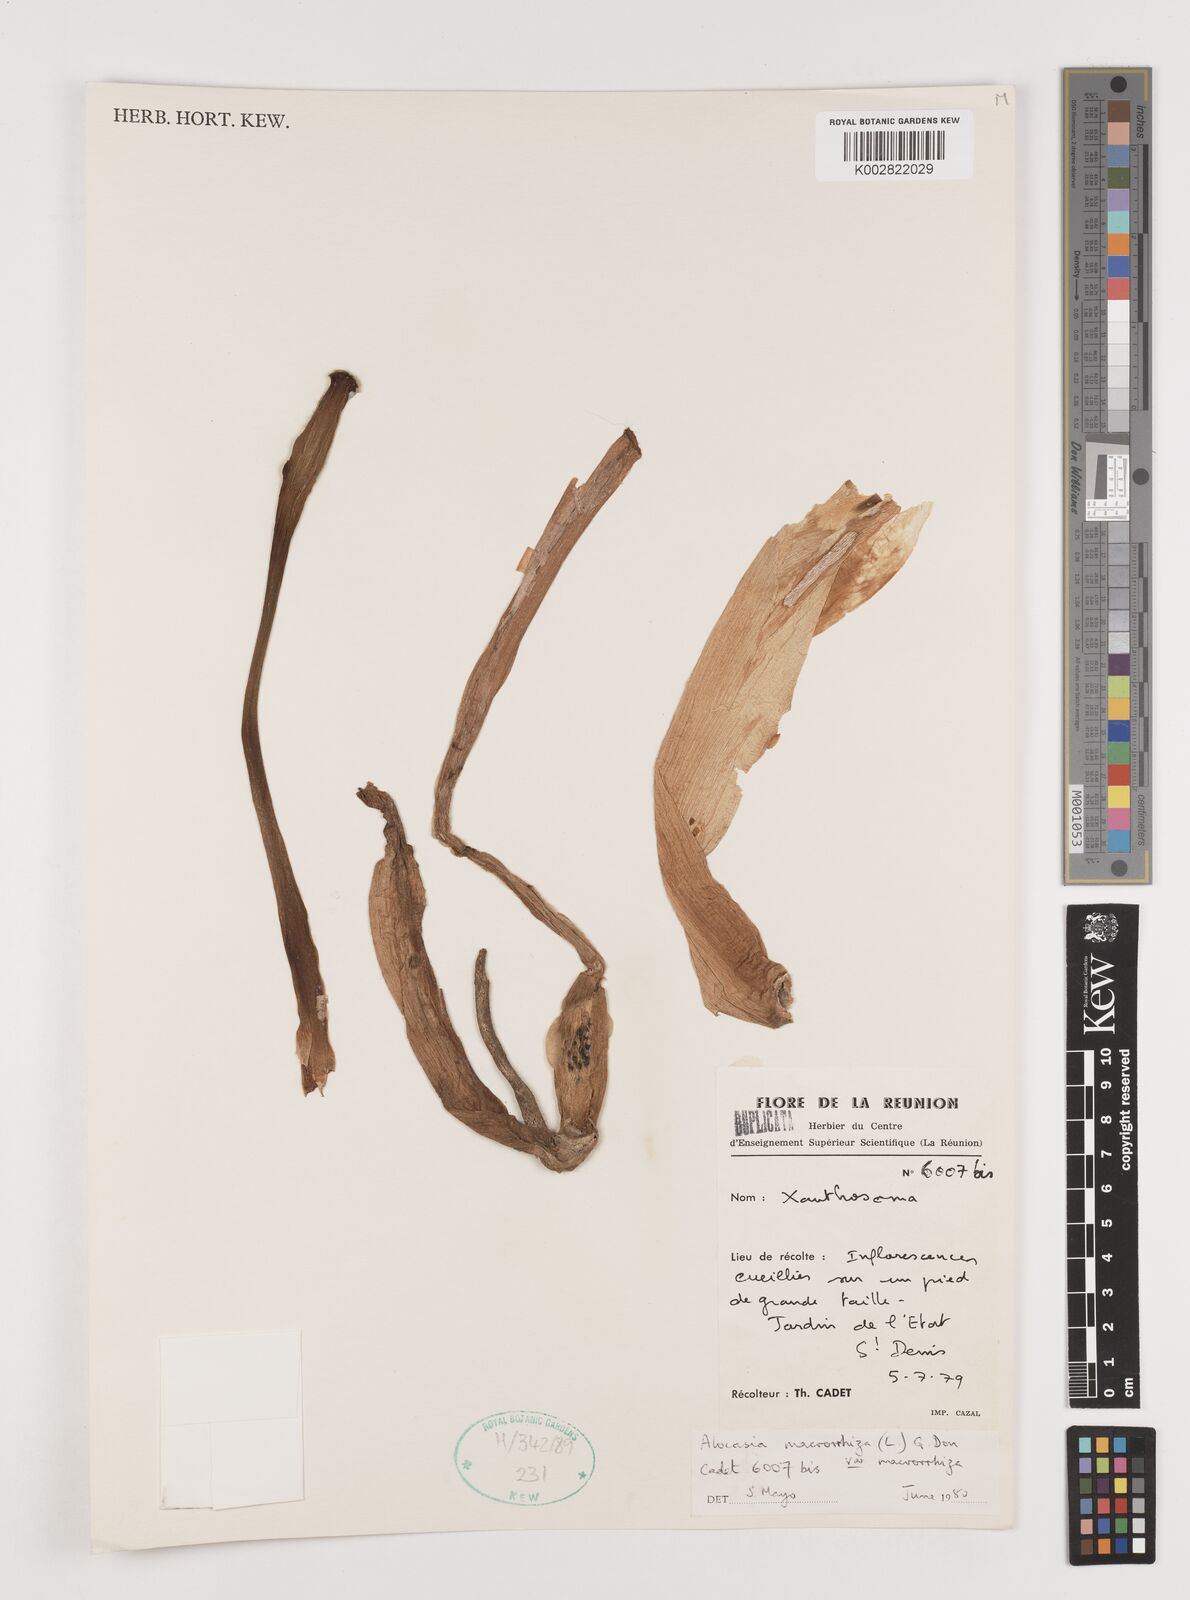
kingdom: Plantae
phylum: Tracheophyta
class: Liliopsida
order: Alismatales
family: Araceae
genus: Alocasia
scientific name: Alocasia macrorrhizos
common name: Giant taro
